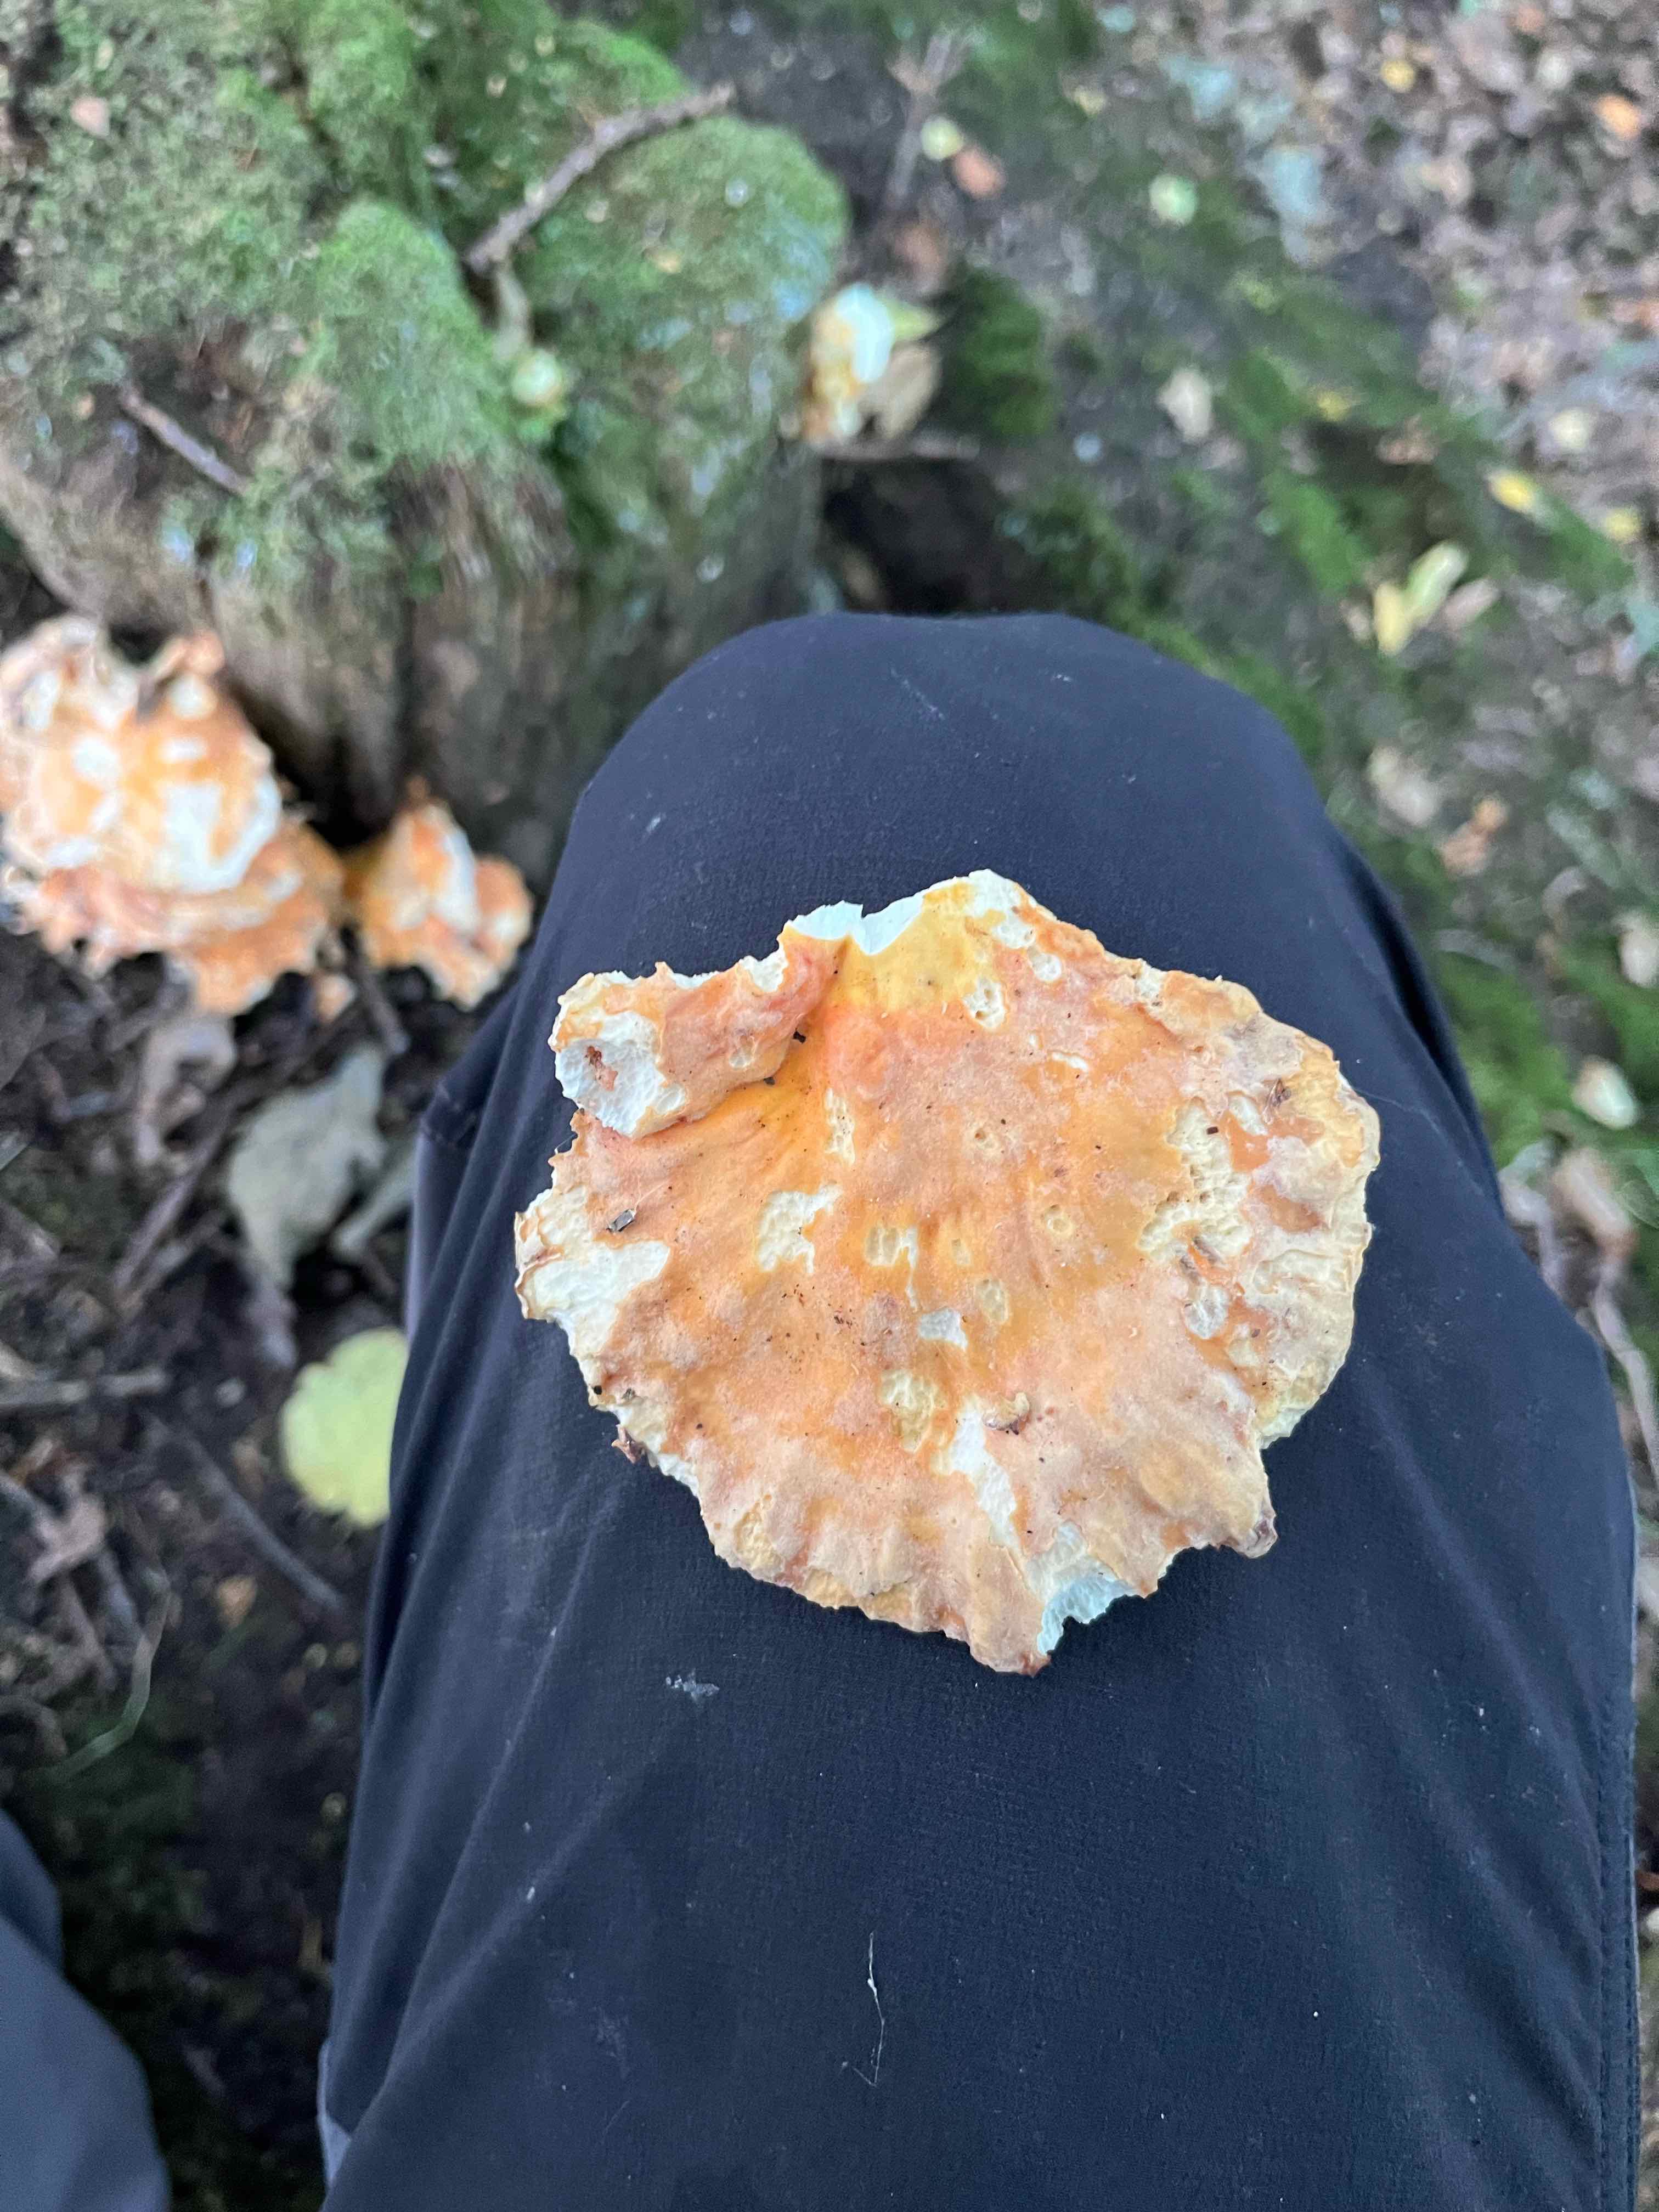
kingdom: Fungi
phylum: Basidiomycota
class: Agaricomycetes
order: Polyporales
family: Laetiporaceae
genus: Laetiporus
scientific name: Laetiporus sulphureus
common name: svovlporesvamp
